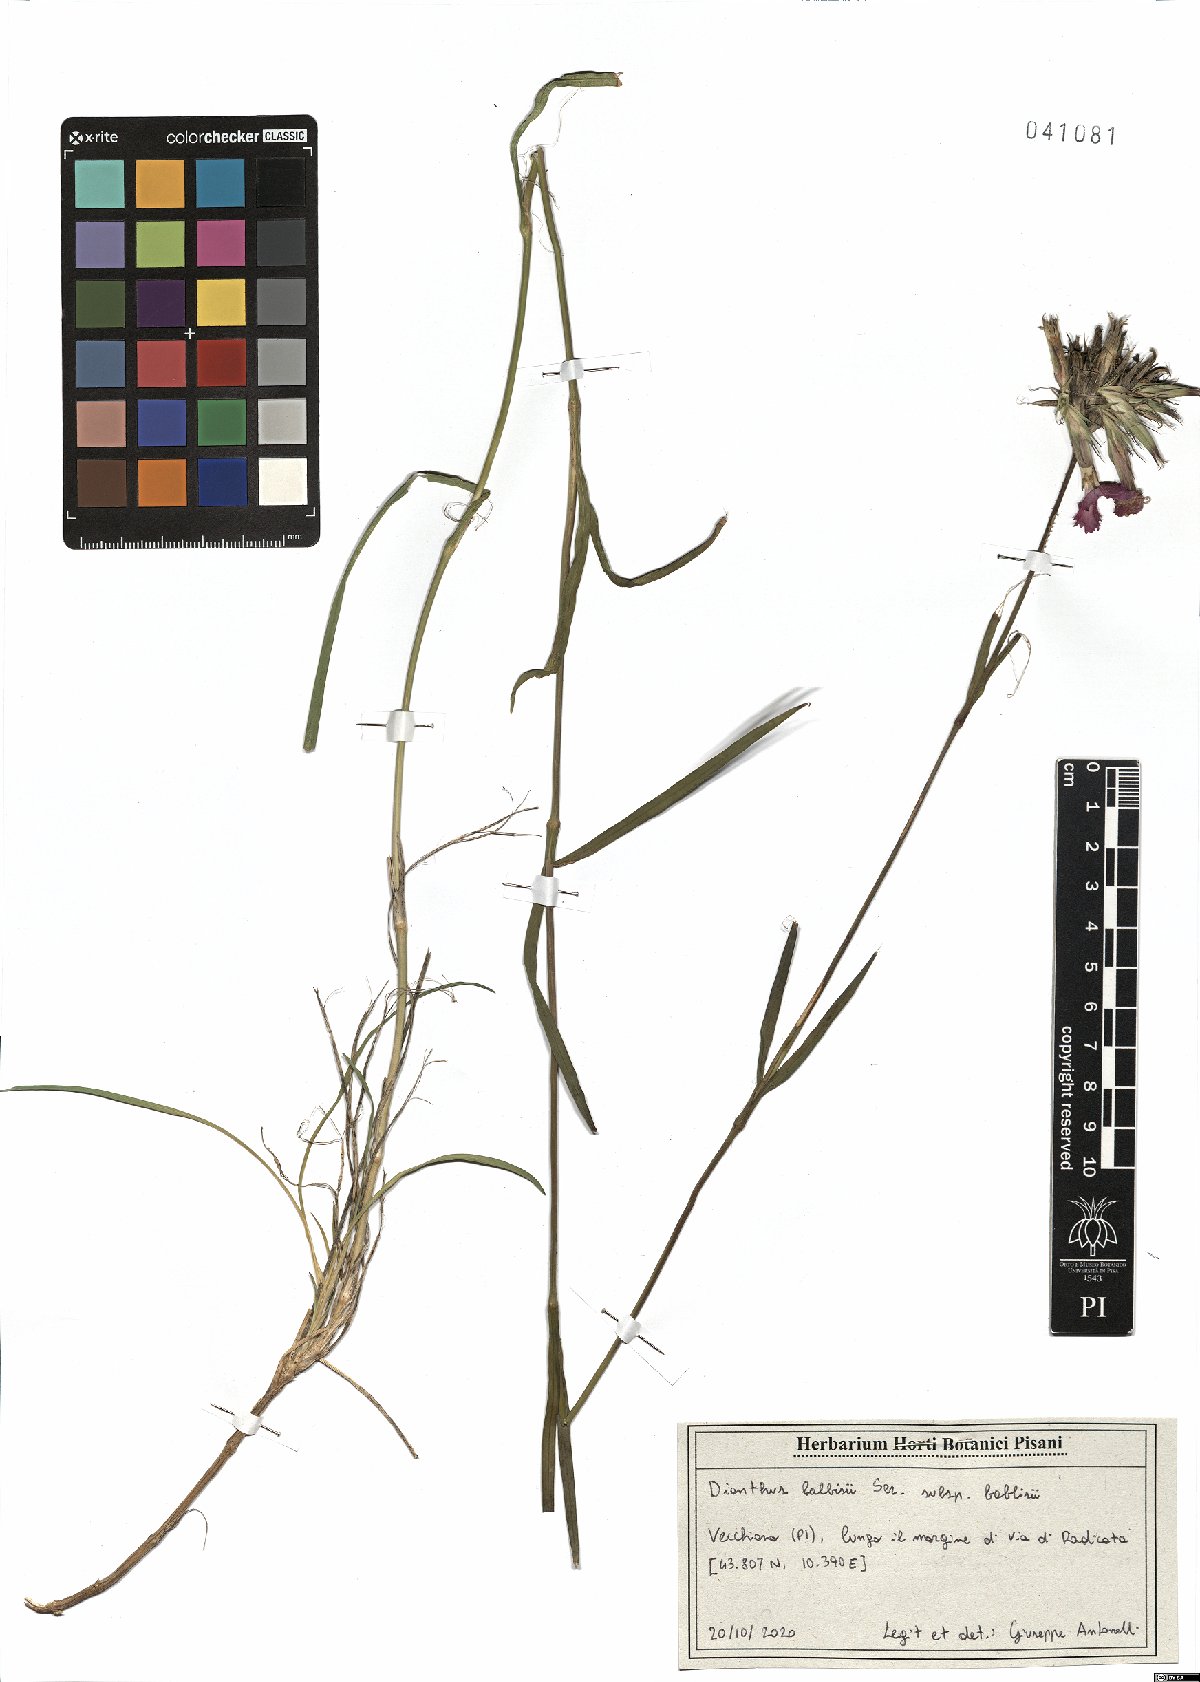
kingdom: Plantae
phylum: Tracheophyta
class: Magnoliopsida
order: Caryophyllales
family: Caryophyllaceae
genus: Dianthus
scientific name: Dianthus balbisii
